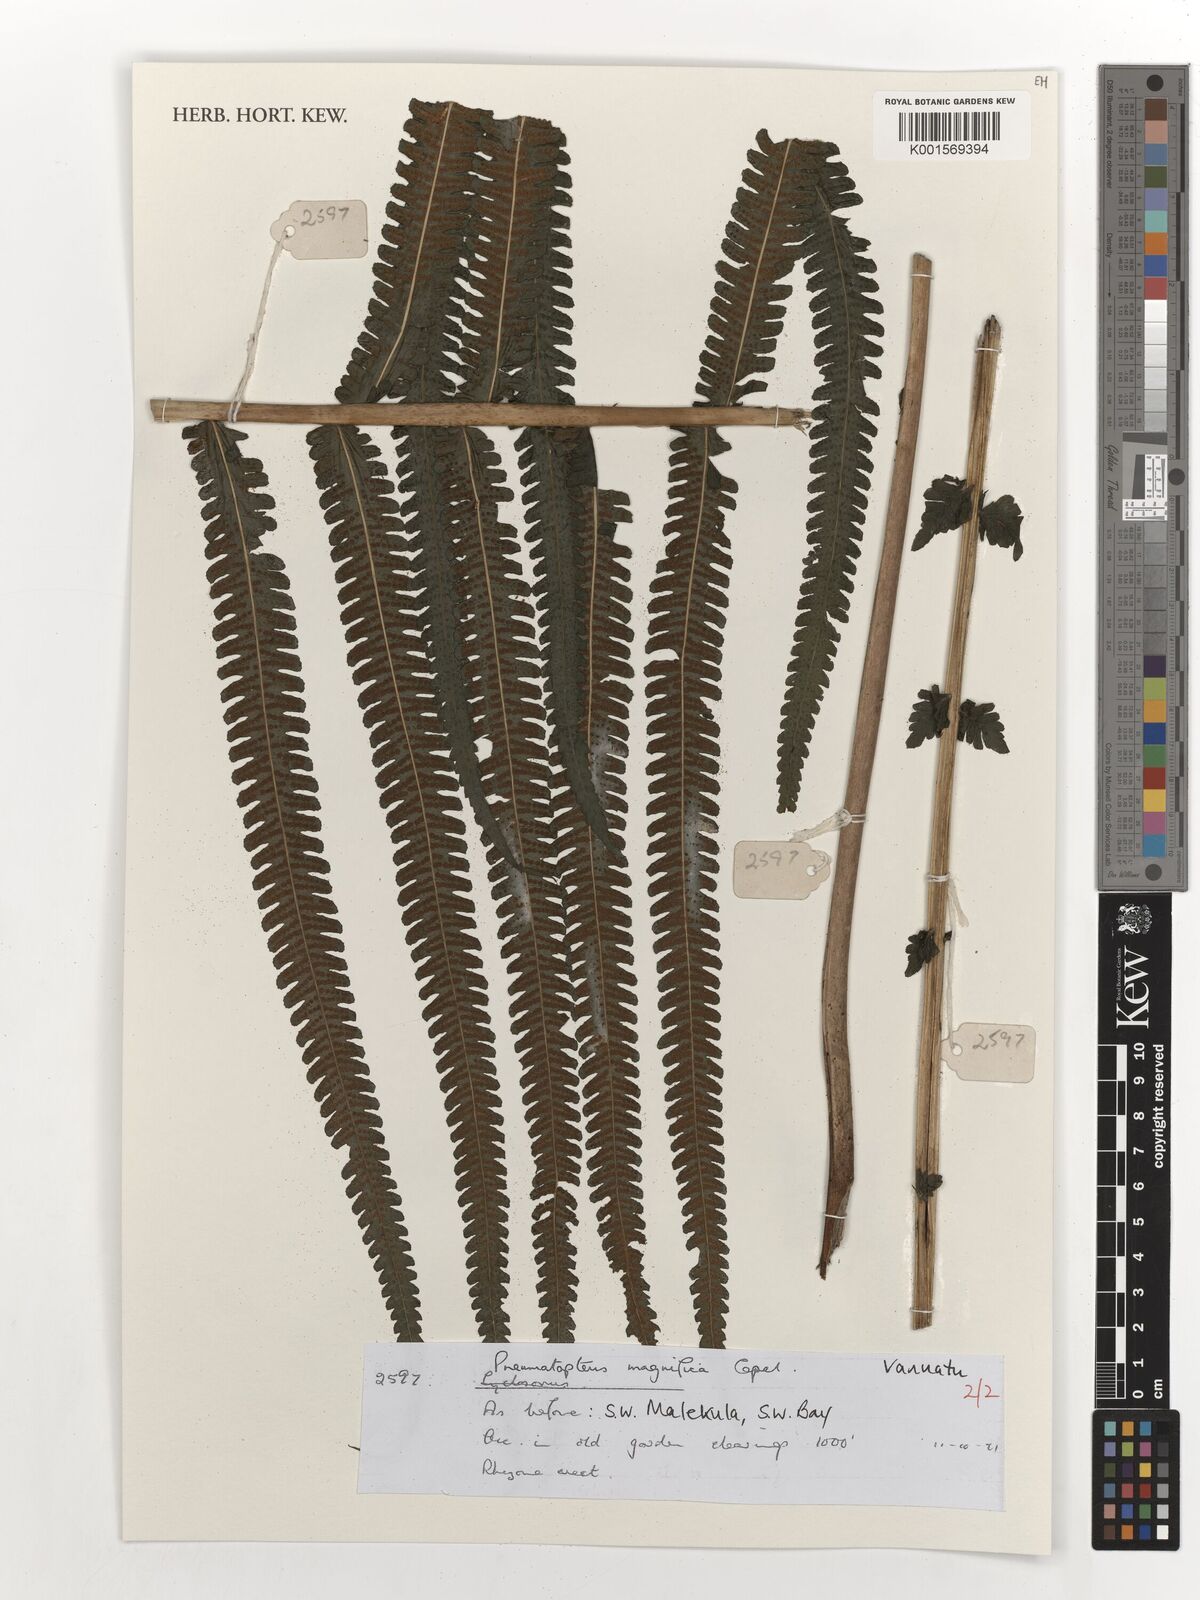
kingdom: Plantae
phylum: Tracheophyta
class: Polypodiopsida
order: Polypodiales
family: Thelypteridaceae
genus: Reholttumia
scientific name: Reholttumia magnifica
